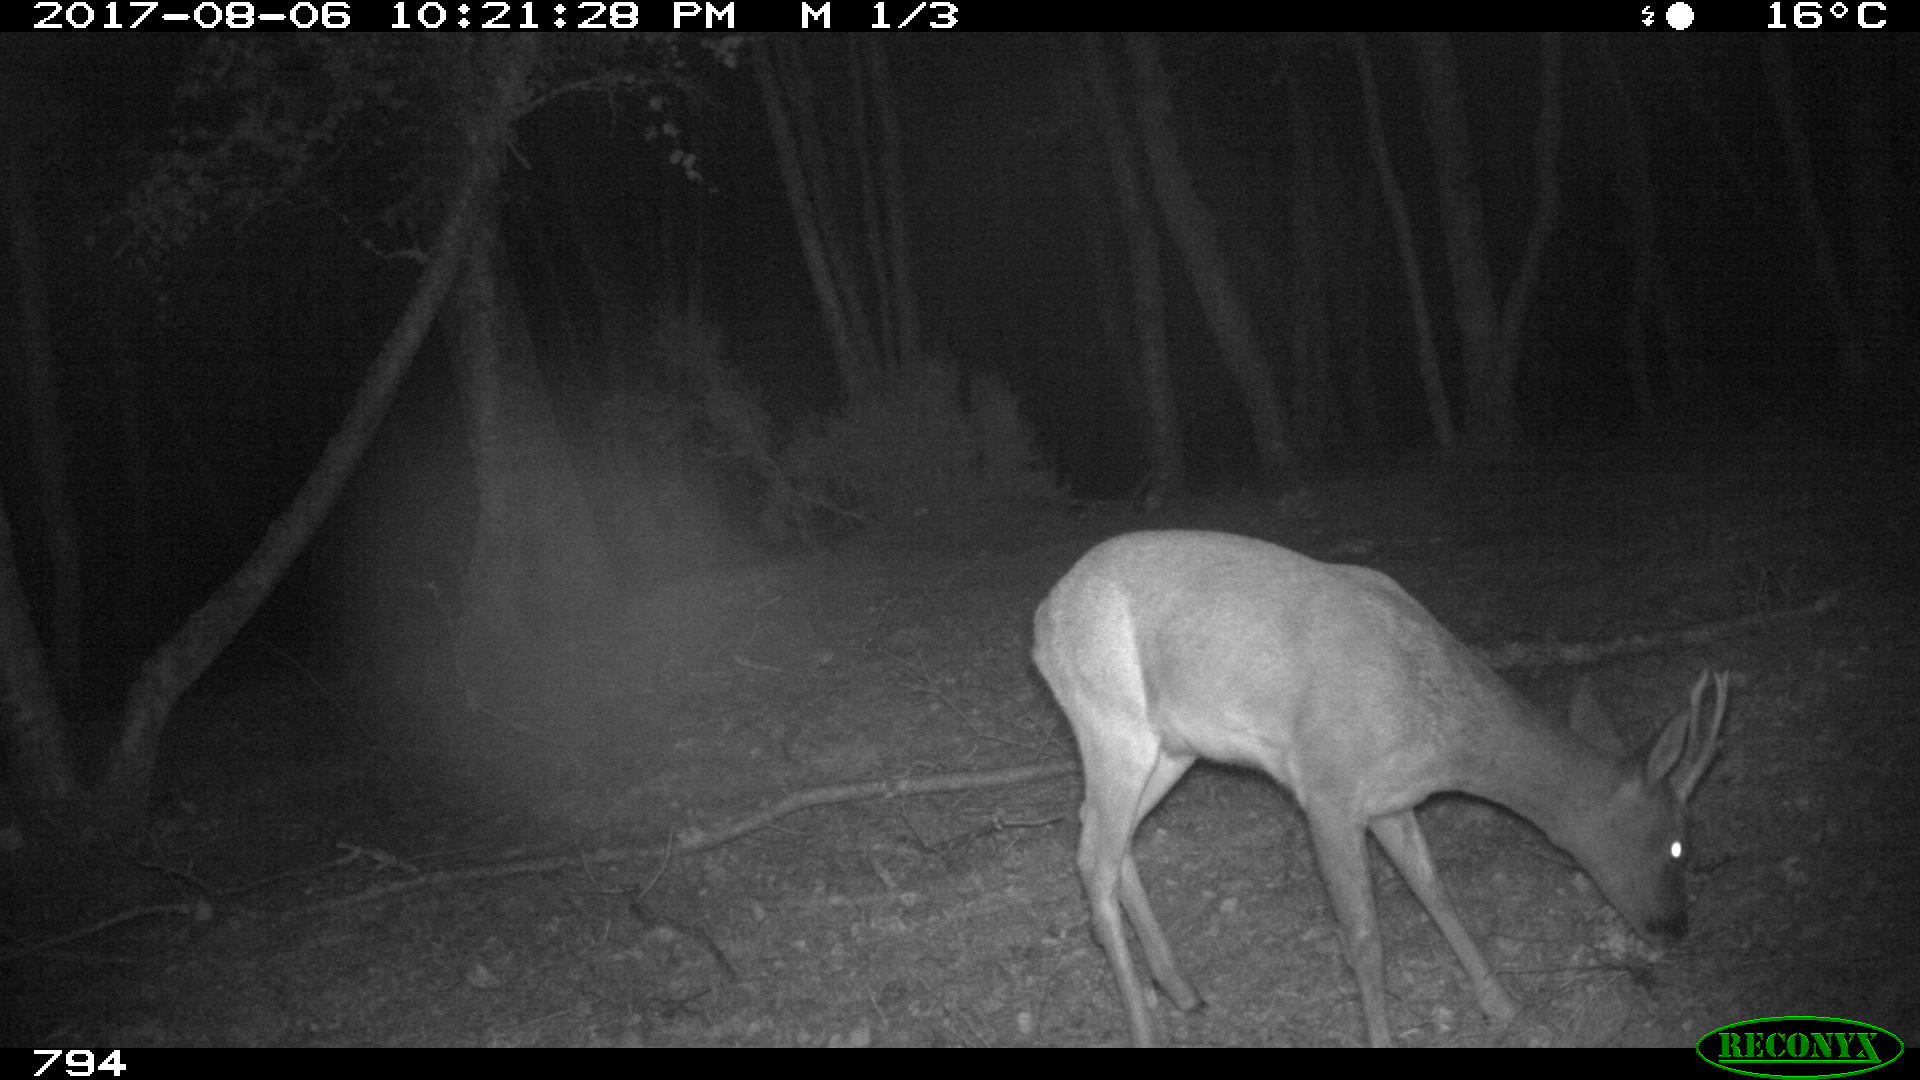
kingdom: Animalia
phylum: Chordata
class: Mammalia
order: Artiodactyla
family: Cervidae
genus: Capreolus
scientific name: Capreolus capreolus
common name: Western roe deer
